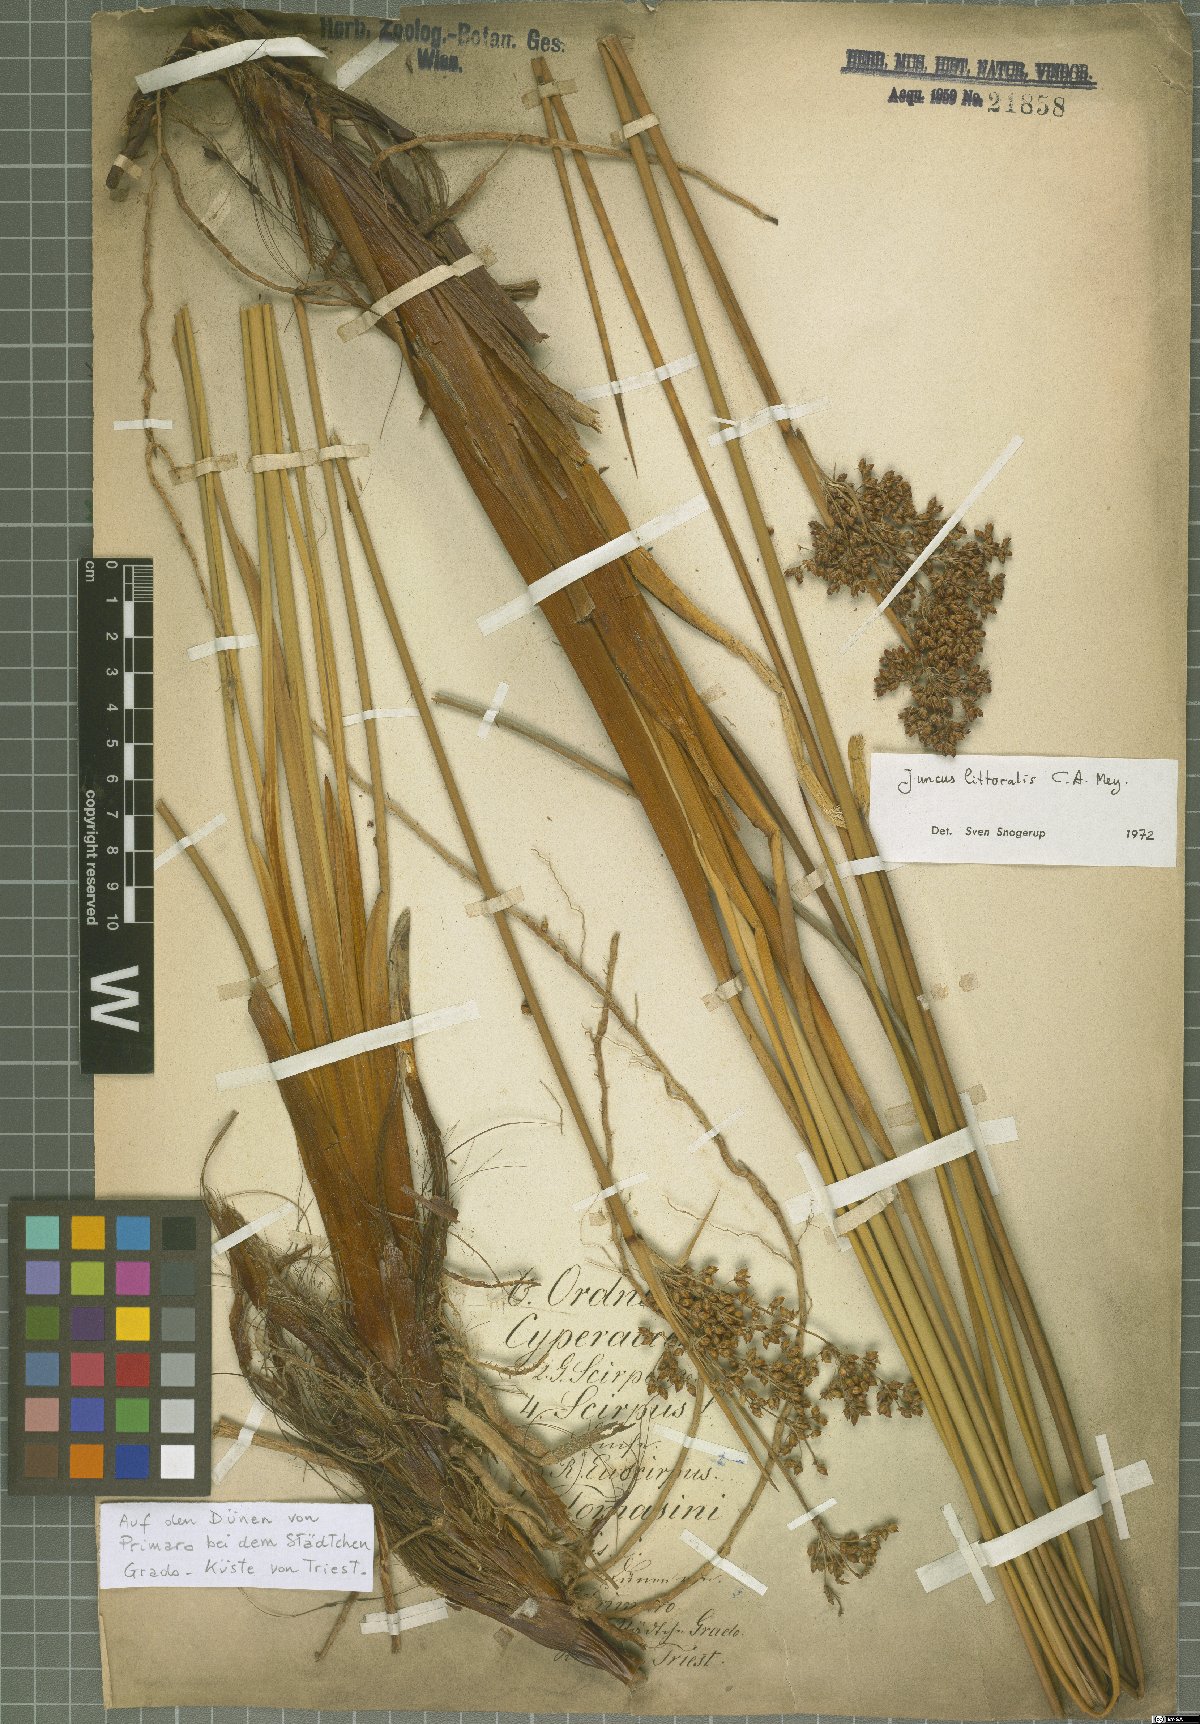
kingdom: Plantae
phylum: Tracheophyta
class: Liliopsida
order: Poales
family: Juncaceae
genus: Juncus
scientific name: Juncus littoralis
